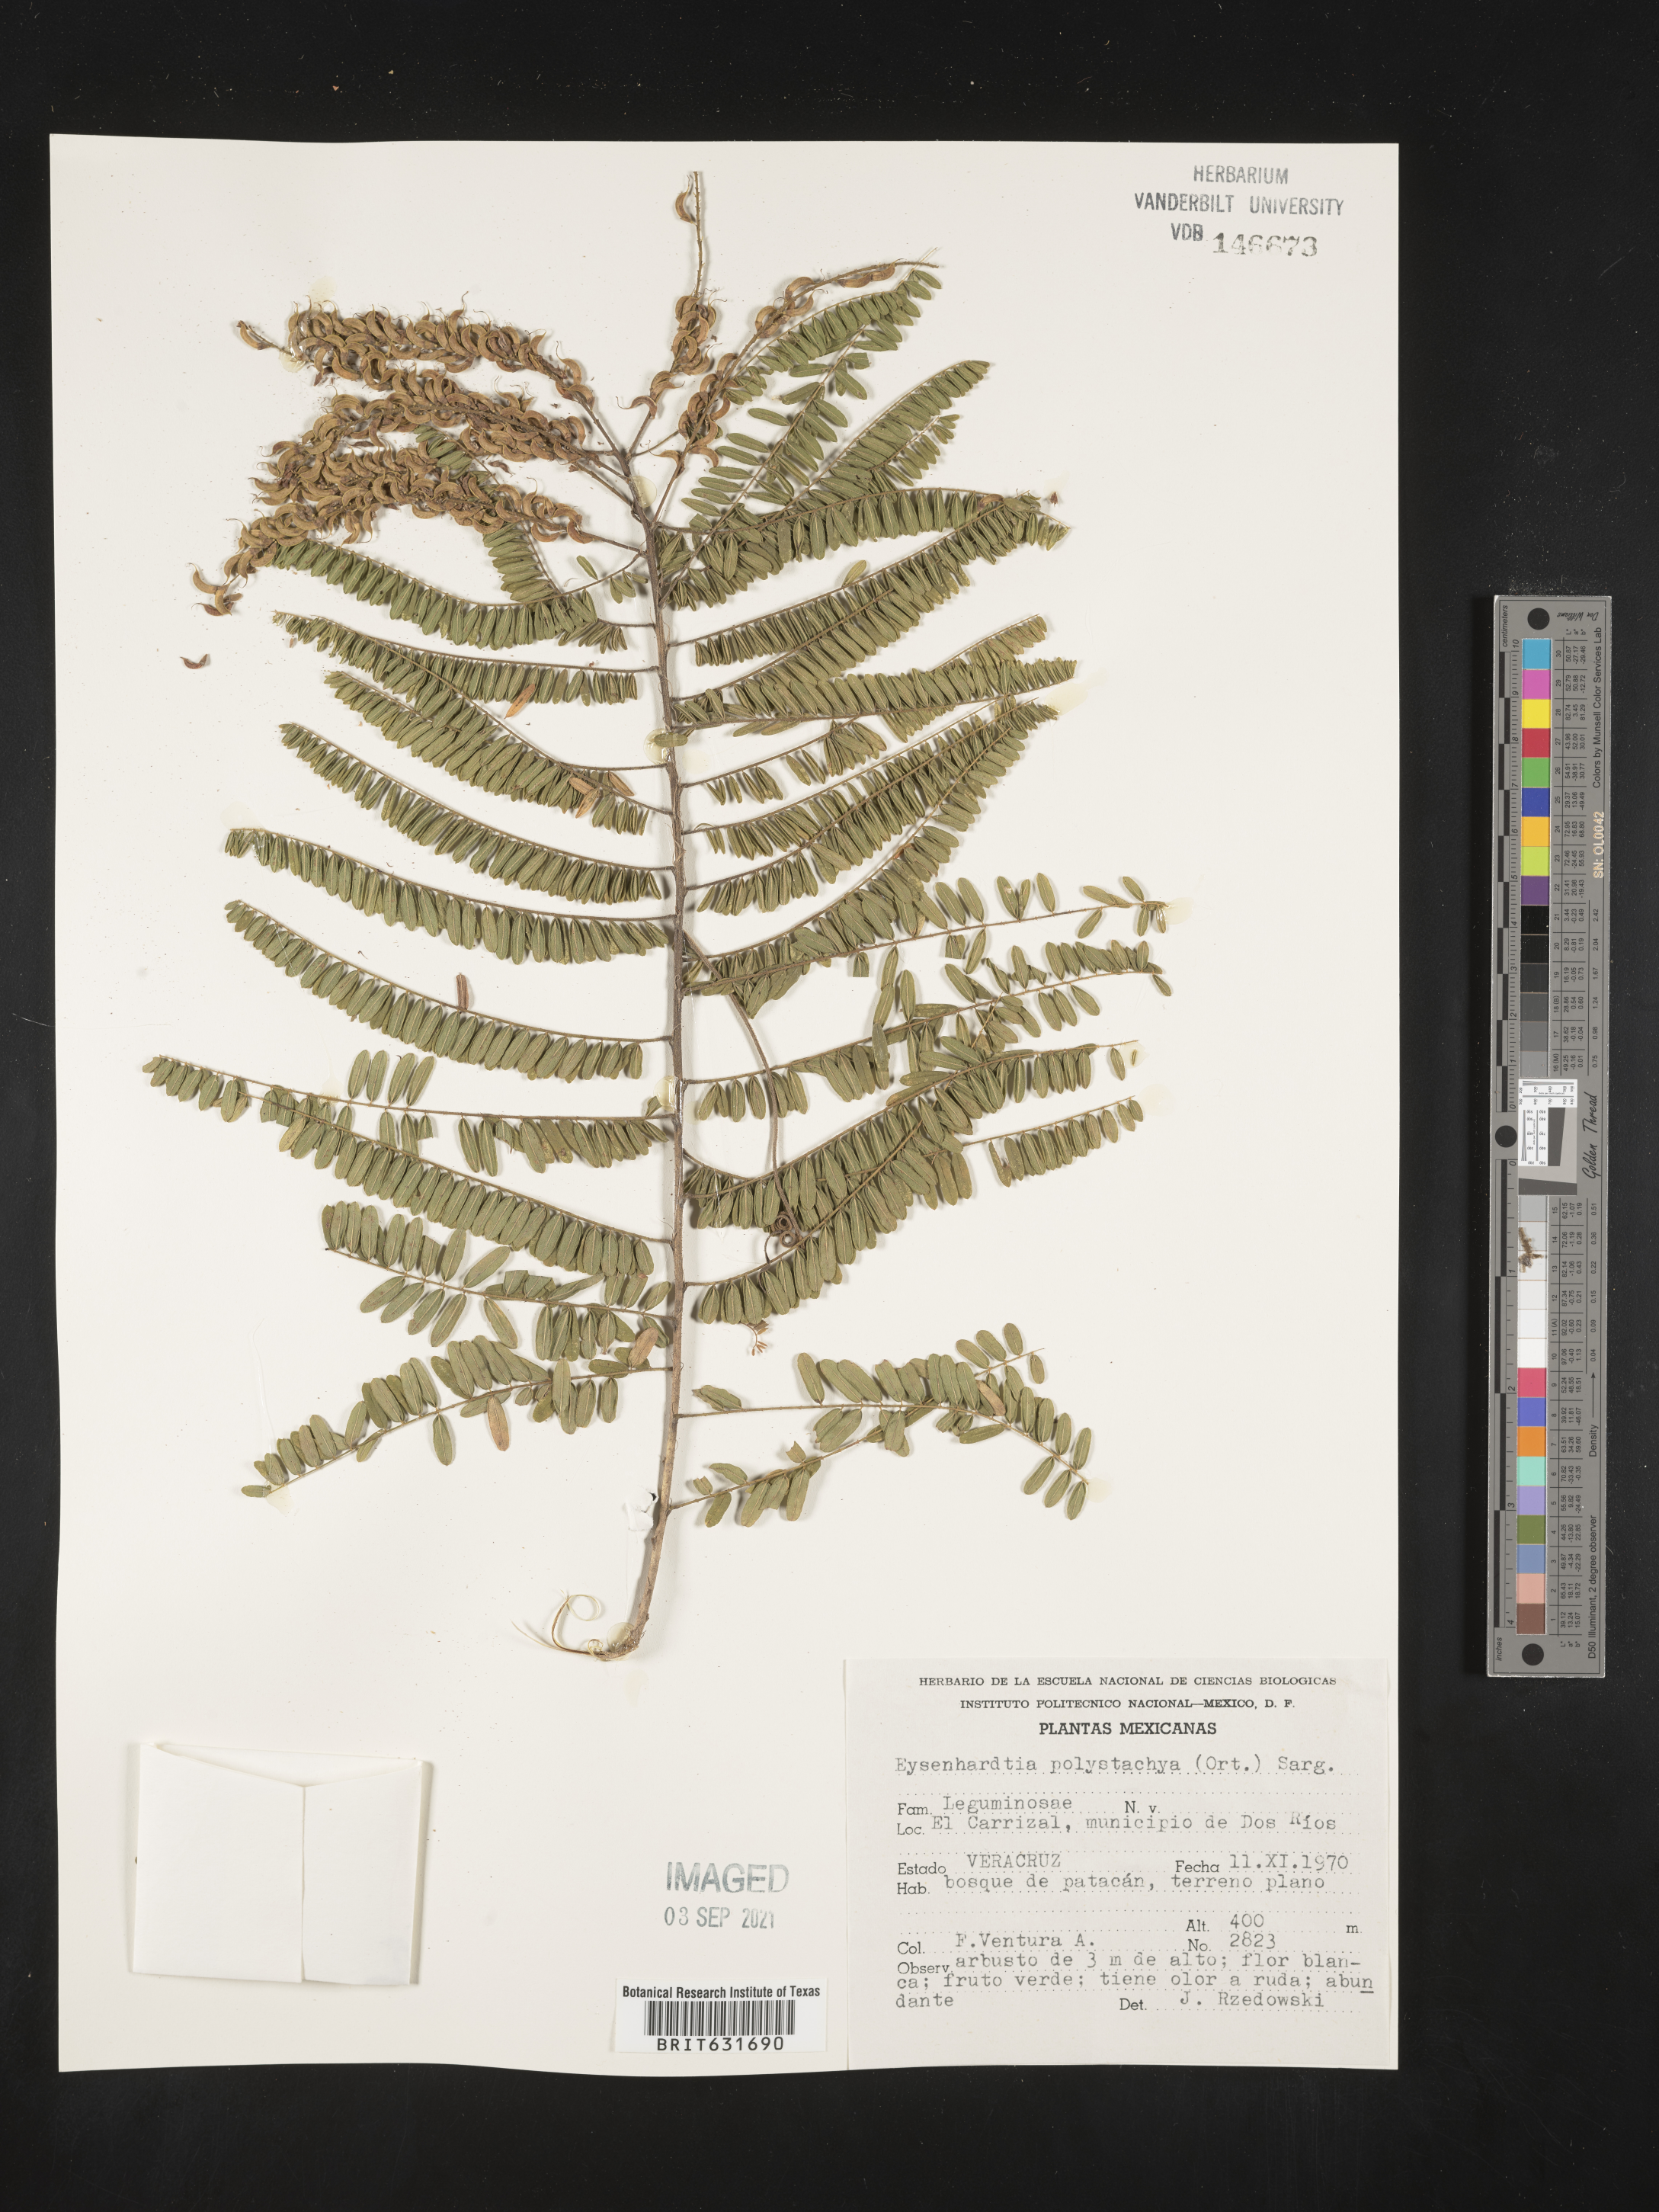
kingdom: Plantae
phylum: Tracheophyta
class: Magnoliopsida
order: Fabales
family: Fabaceae
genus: Eysenhardtia
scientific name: Eysenhardtia
